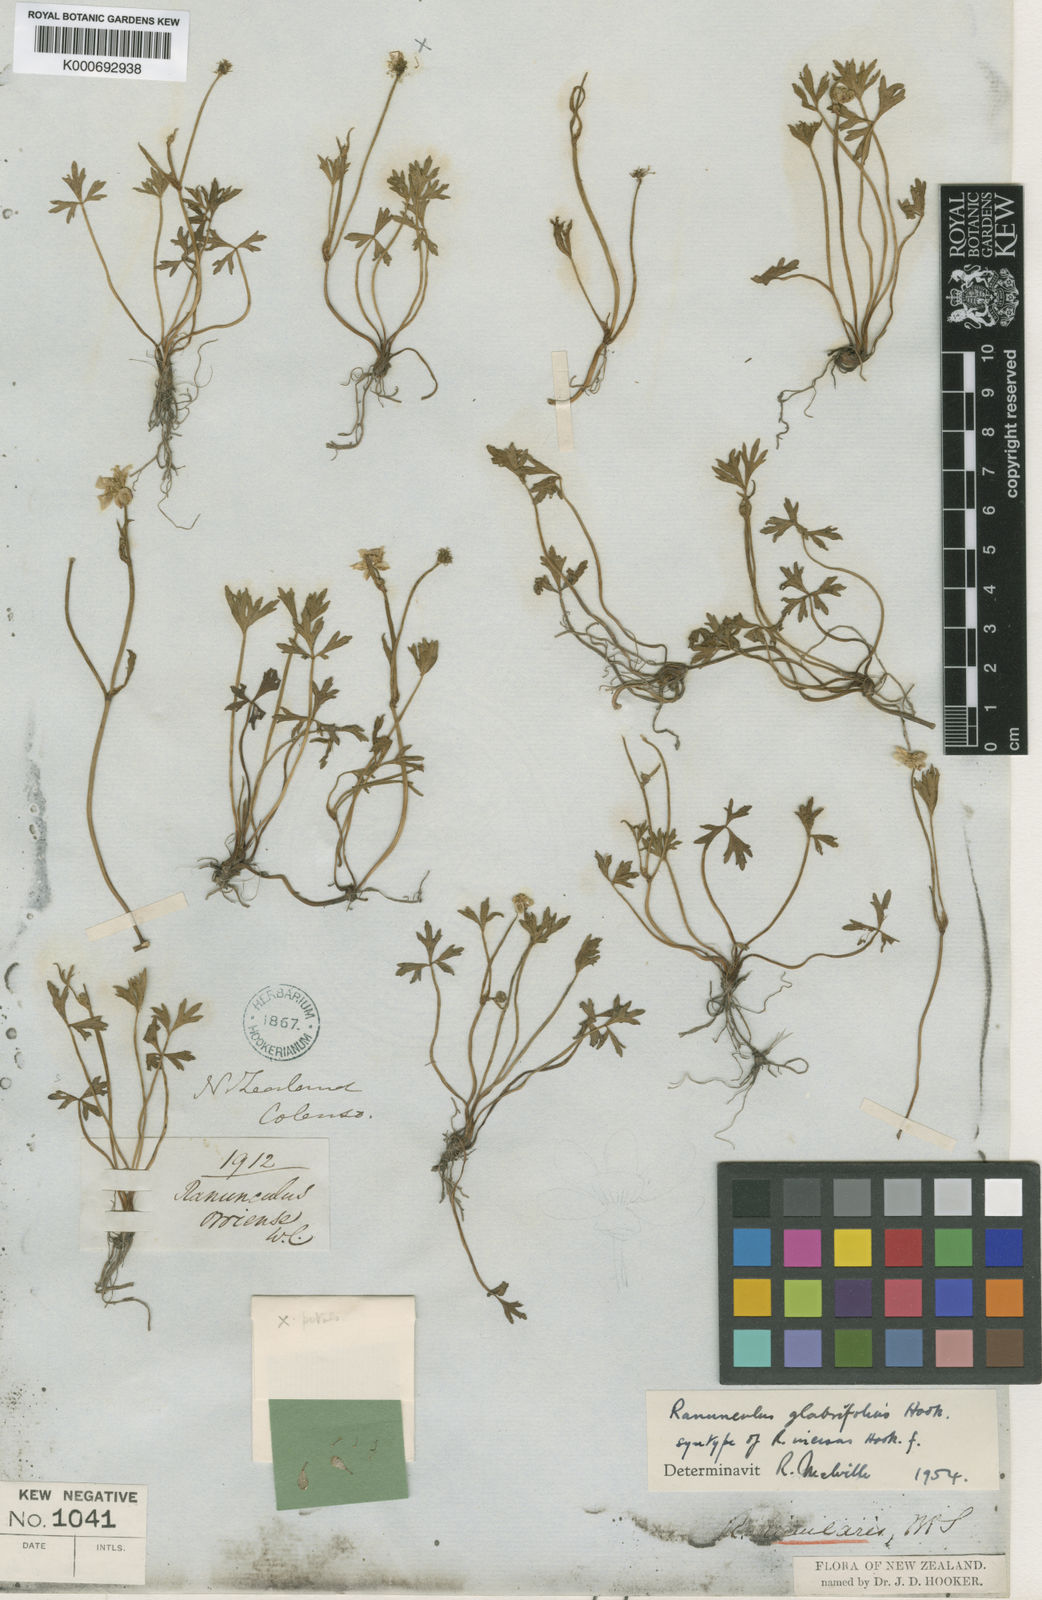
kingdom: Plantae
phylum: Tracheophyta
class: Magnoliopsida
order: Ranunculales
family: Ranunculaceae
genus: Ranunculus
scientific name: Ranunculus glabrifolius
